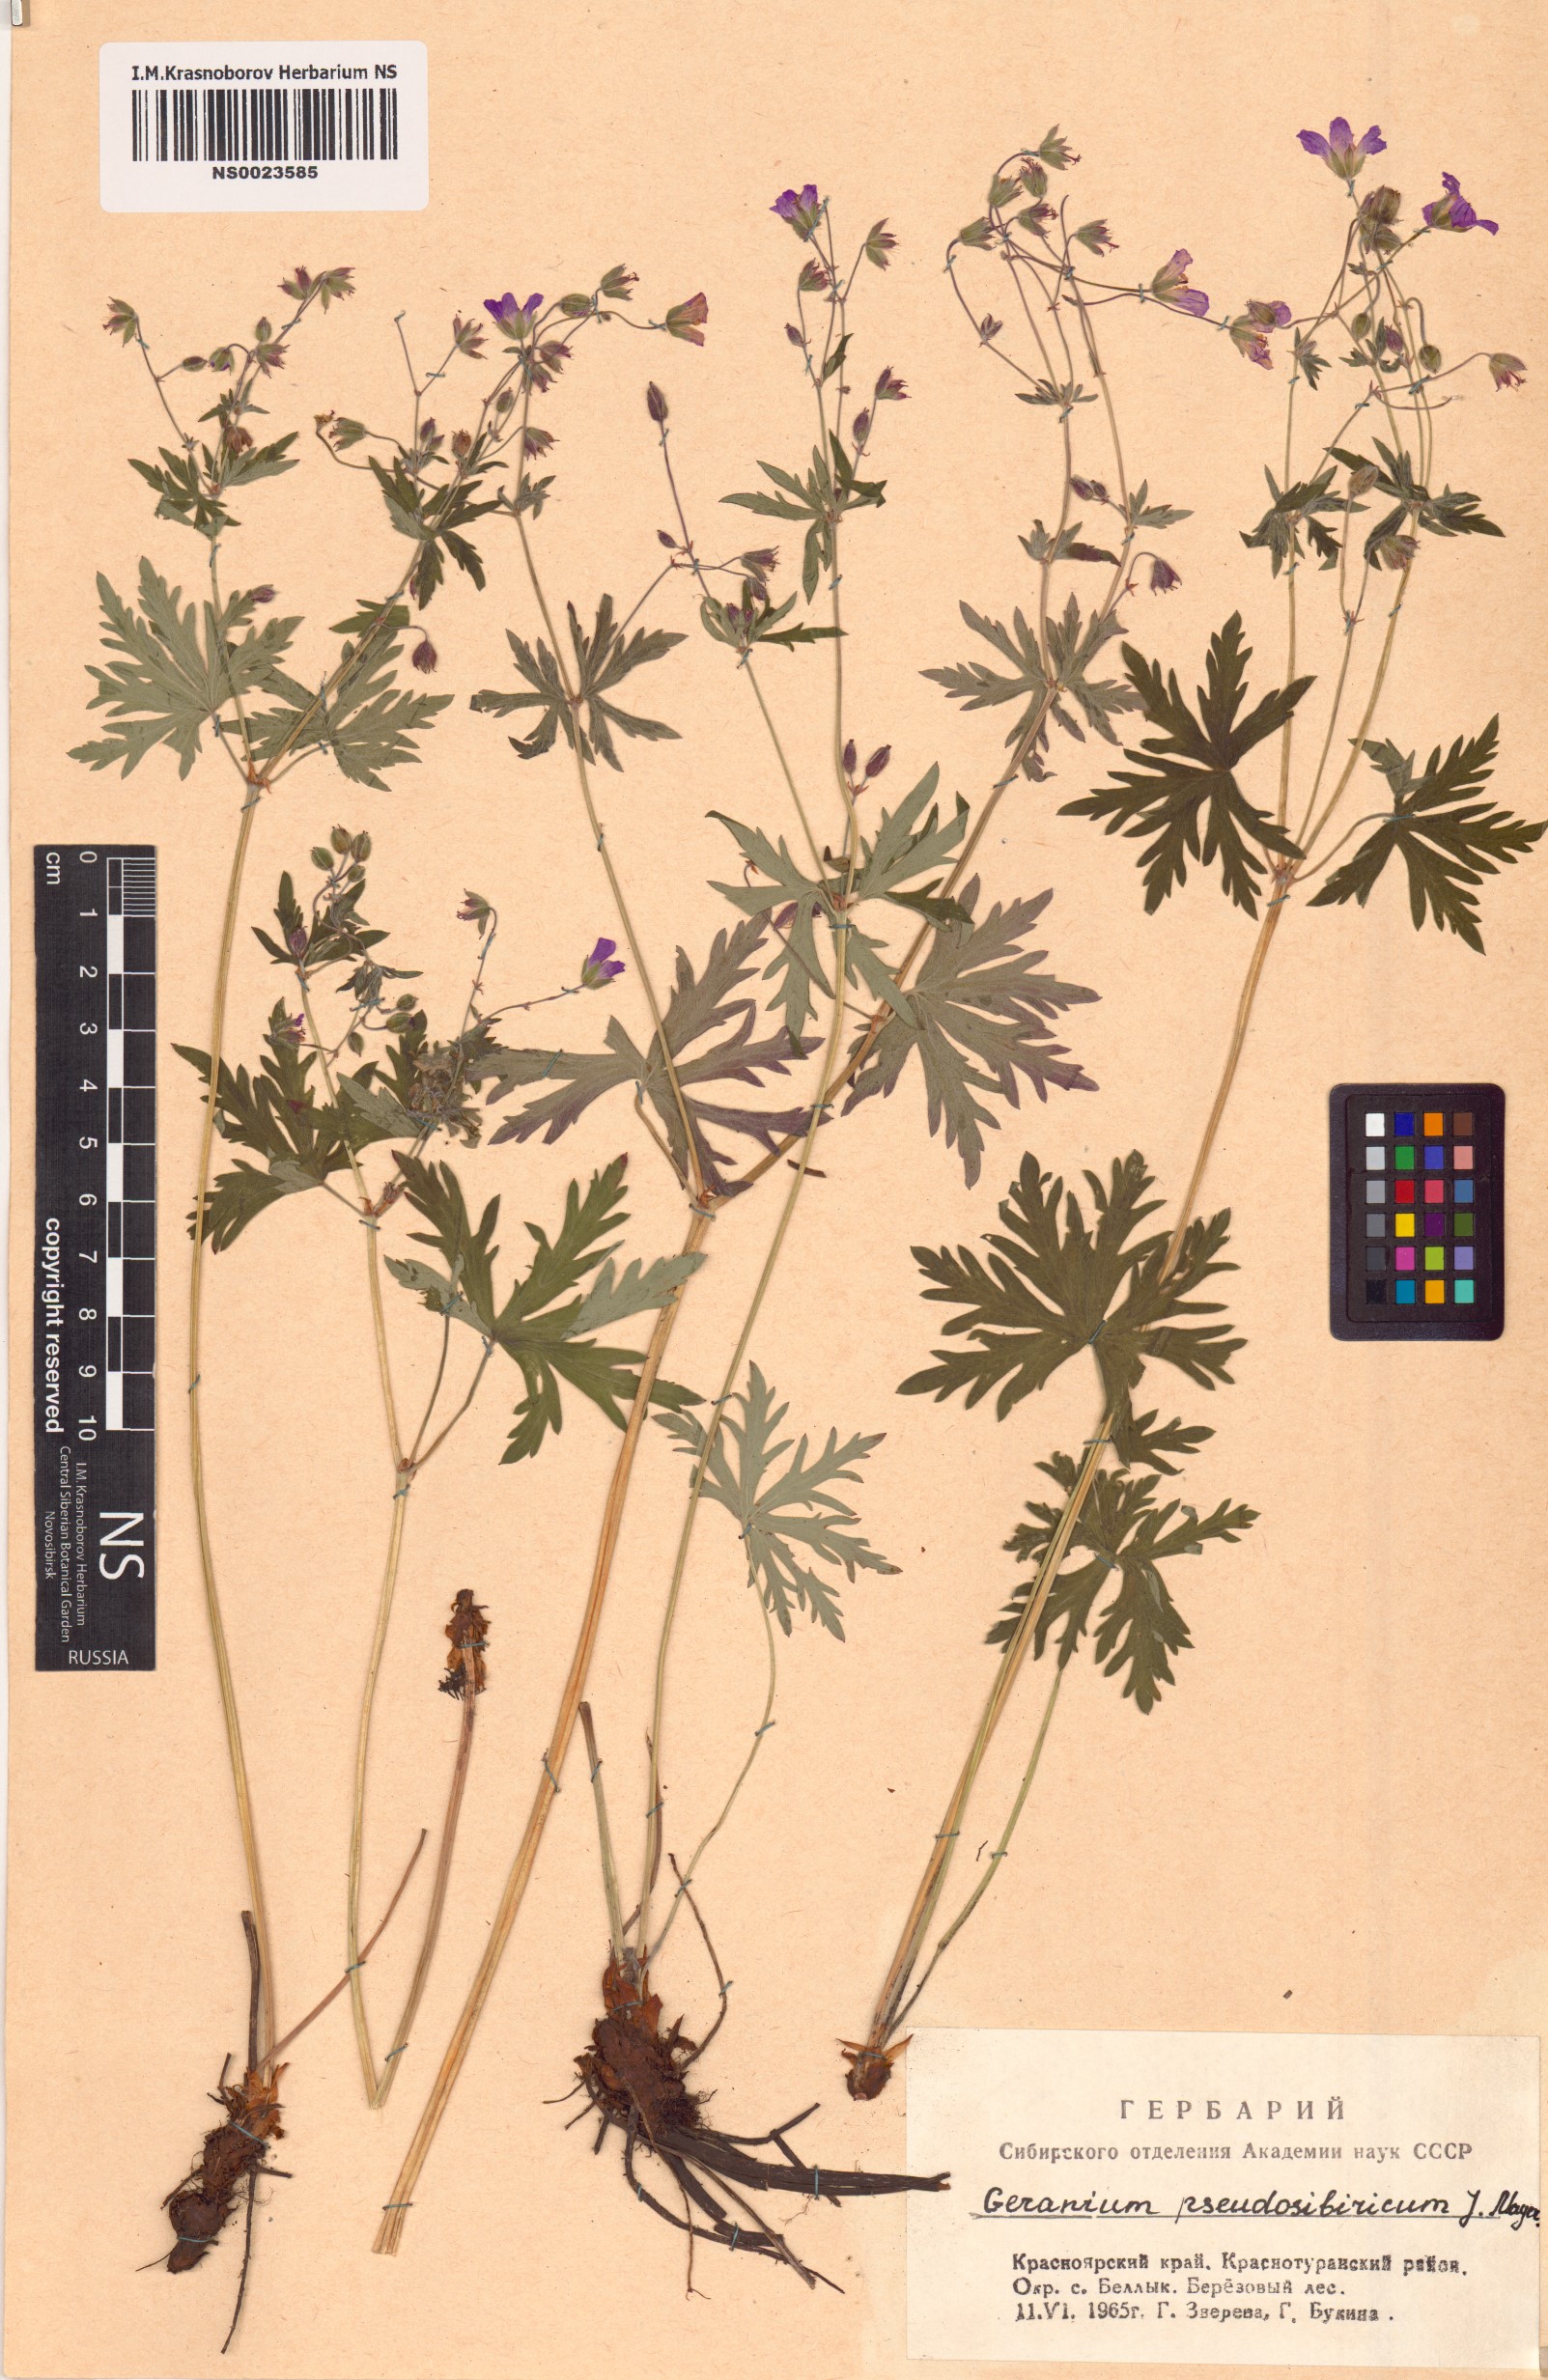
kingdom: Plantae
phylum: Tracheophyta
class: Magnoliopsida
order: Geraniales
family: Geraniaceae
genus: Geranium
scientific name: Geranium pseudosibiricum
